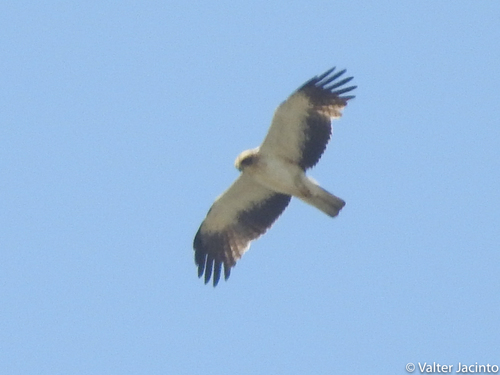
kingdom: Animalia
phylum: Chordata
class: Aves
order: Accipitriformes
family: Accipitridae
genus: Hieraaetus
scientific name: Hieraaetus pennatus
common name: Booted eagle
